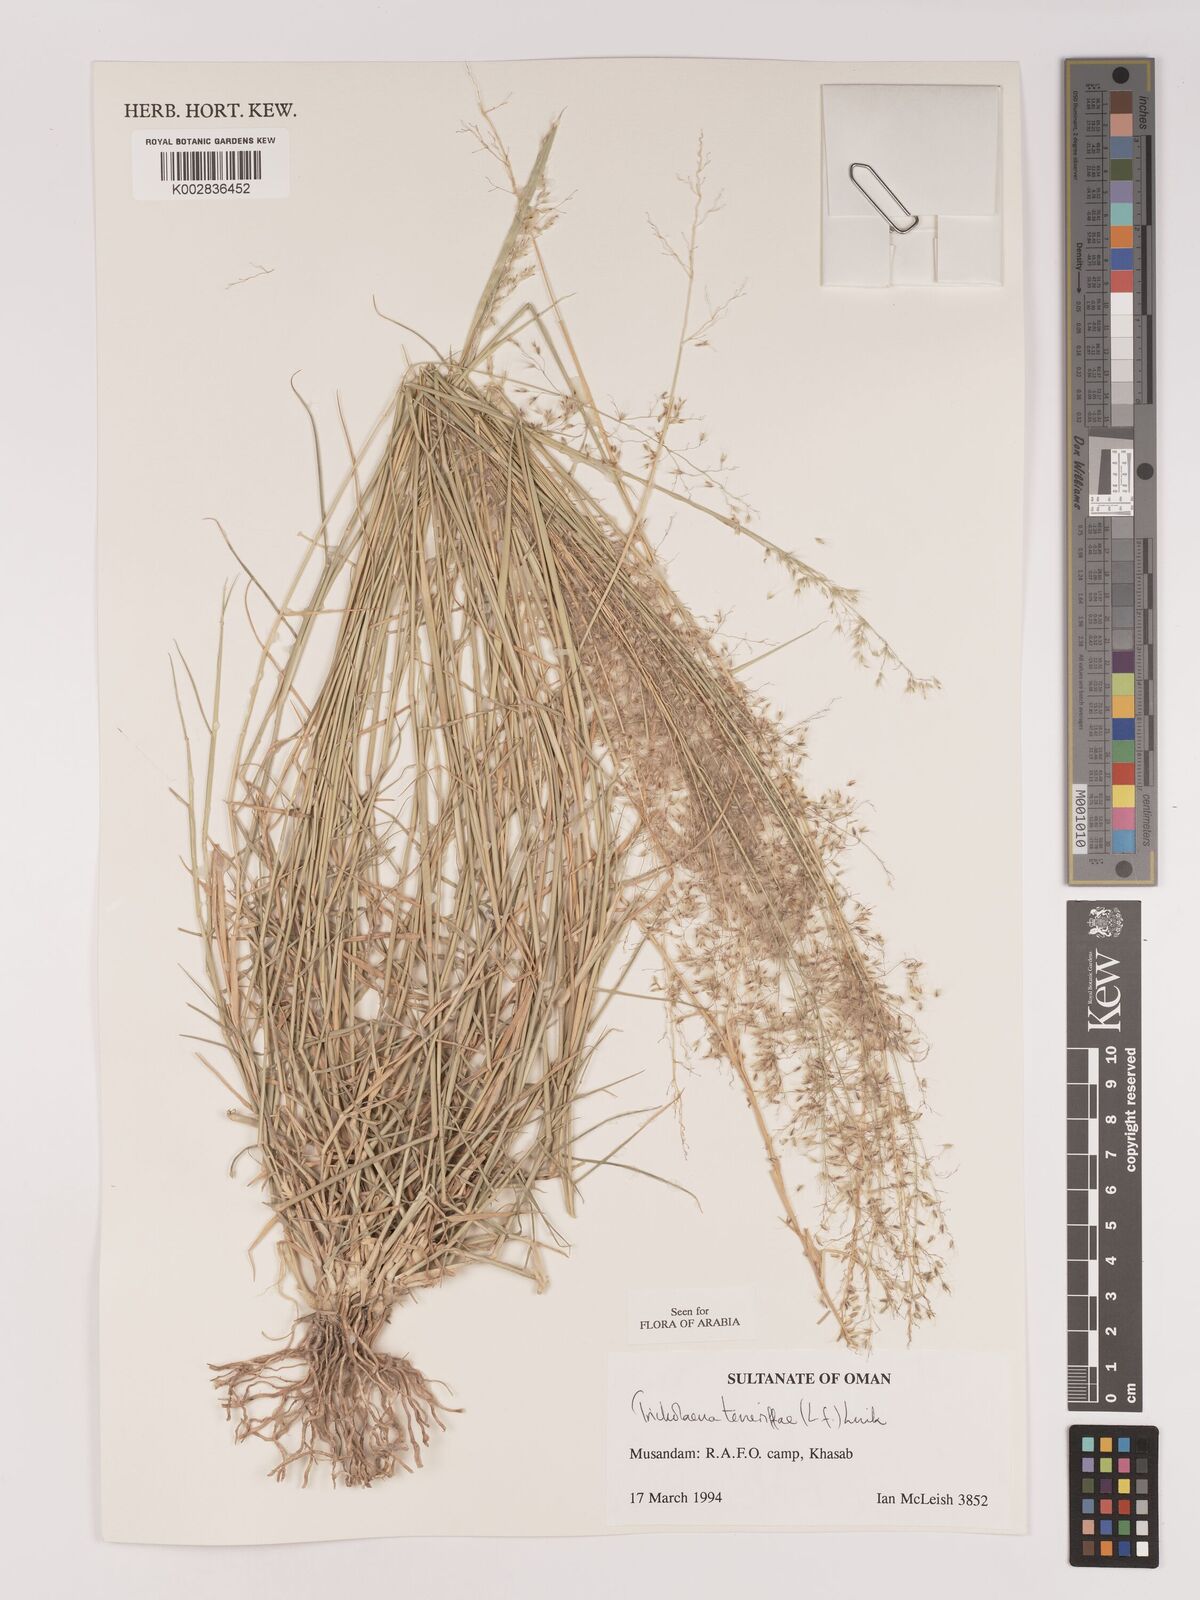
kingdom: Plantae
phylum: Tracheophyta
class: Liliopsida
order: Poales
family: Poaceae
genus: Tricholaena
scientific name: Tricholaena teneriffae
